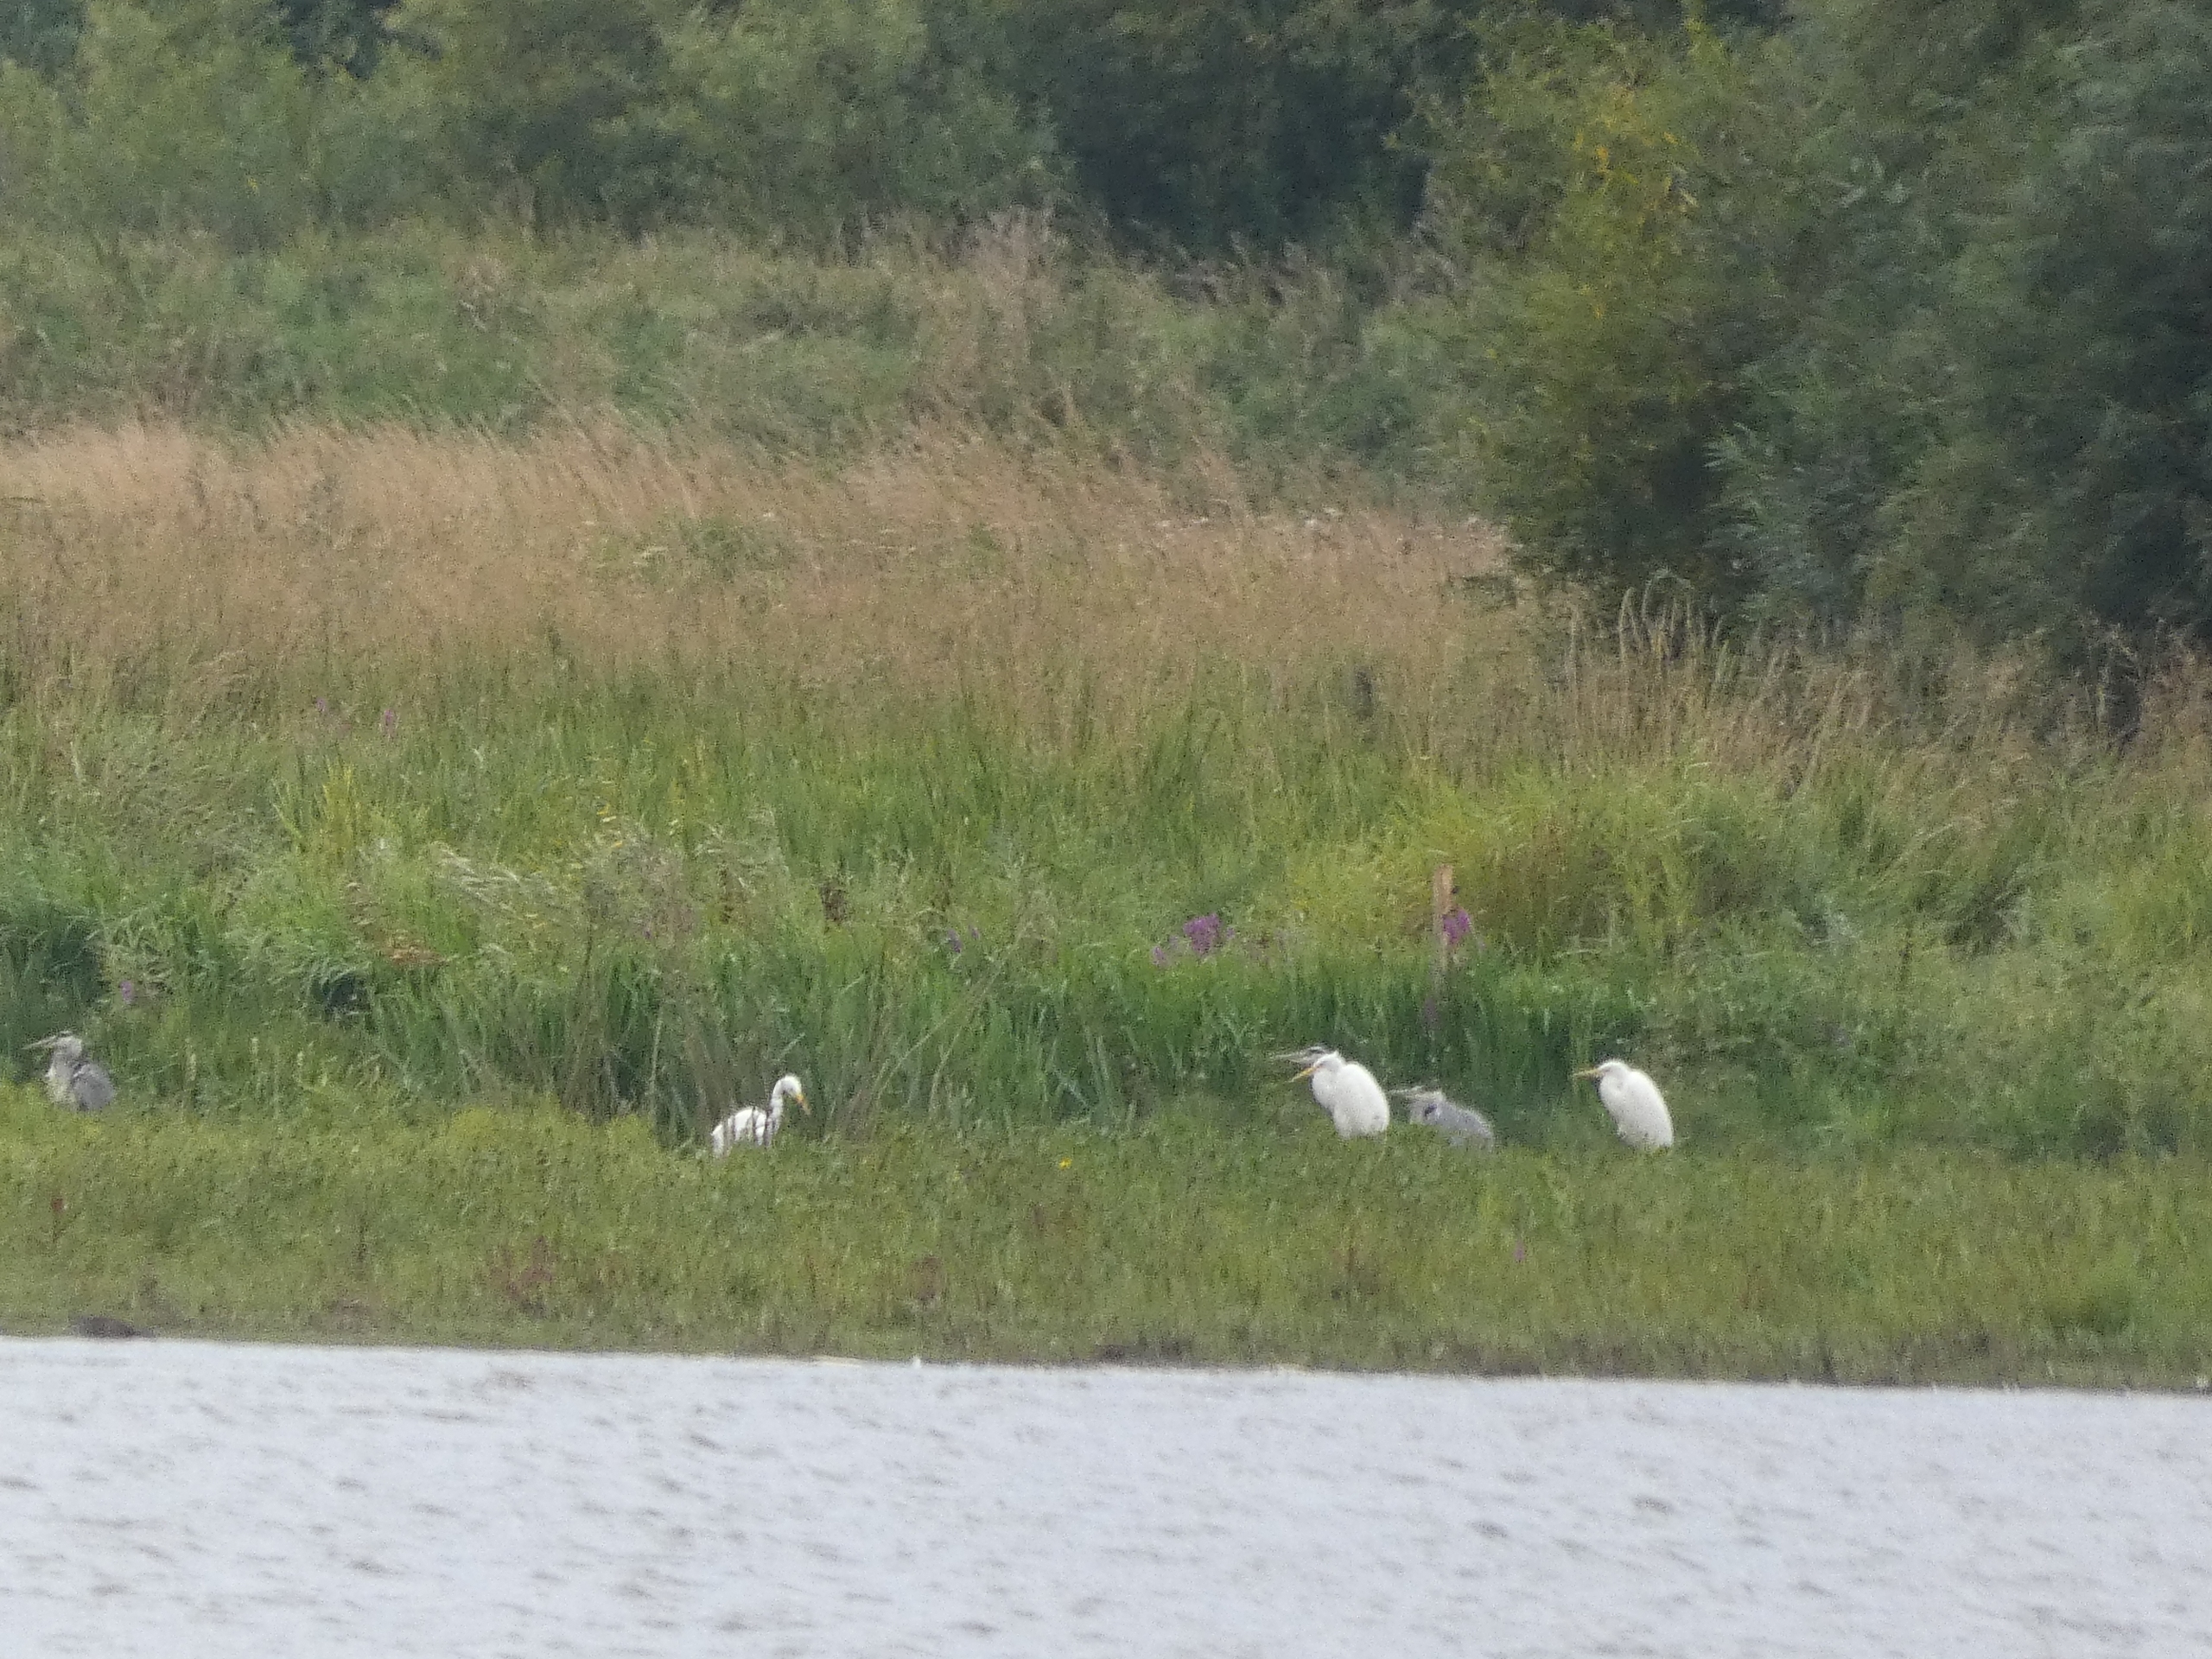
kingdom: Animalia
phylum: Chordata
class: Aves
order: Pelecaniformes
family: Ardeidae
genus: Ardea
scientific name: Ardea alba
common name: Sølvhejre
